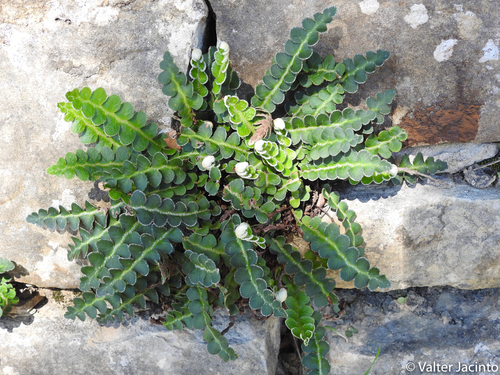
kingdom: Plantae
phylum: Tracheophyta
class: Polypodiopsida
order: Polypodiales
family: Aspleniaceae
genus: Asplenium
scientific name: Asplenium ceterach
